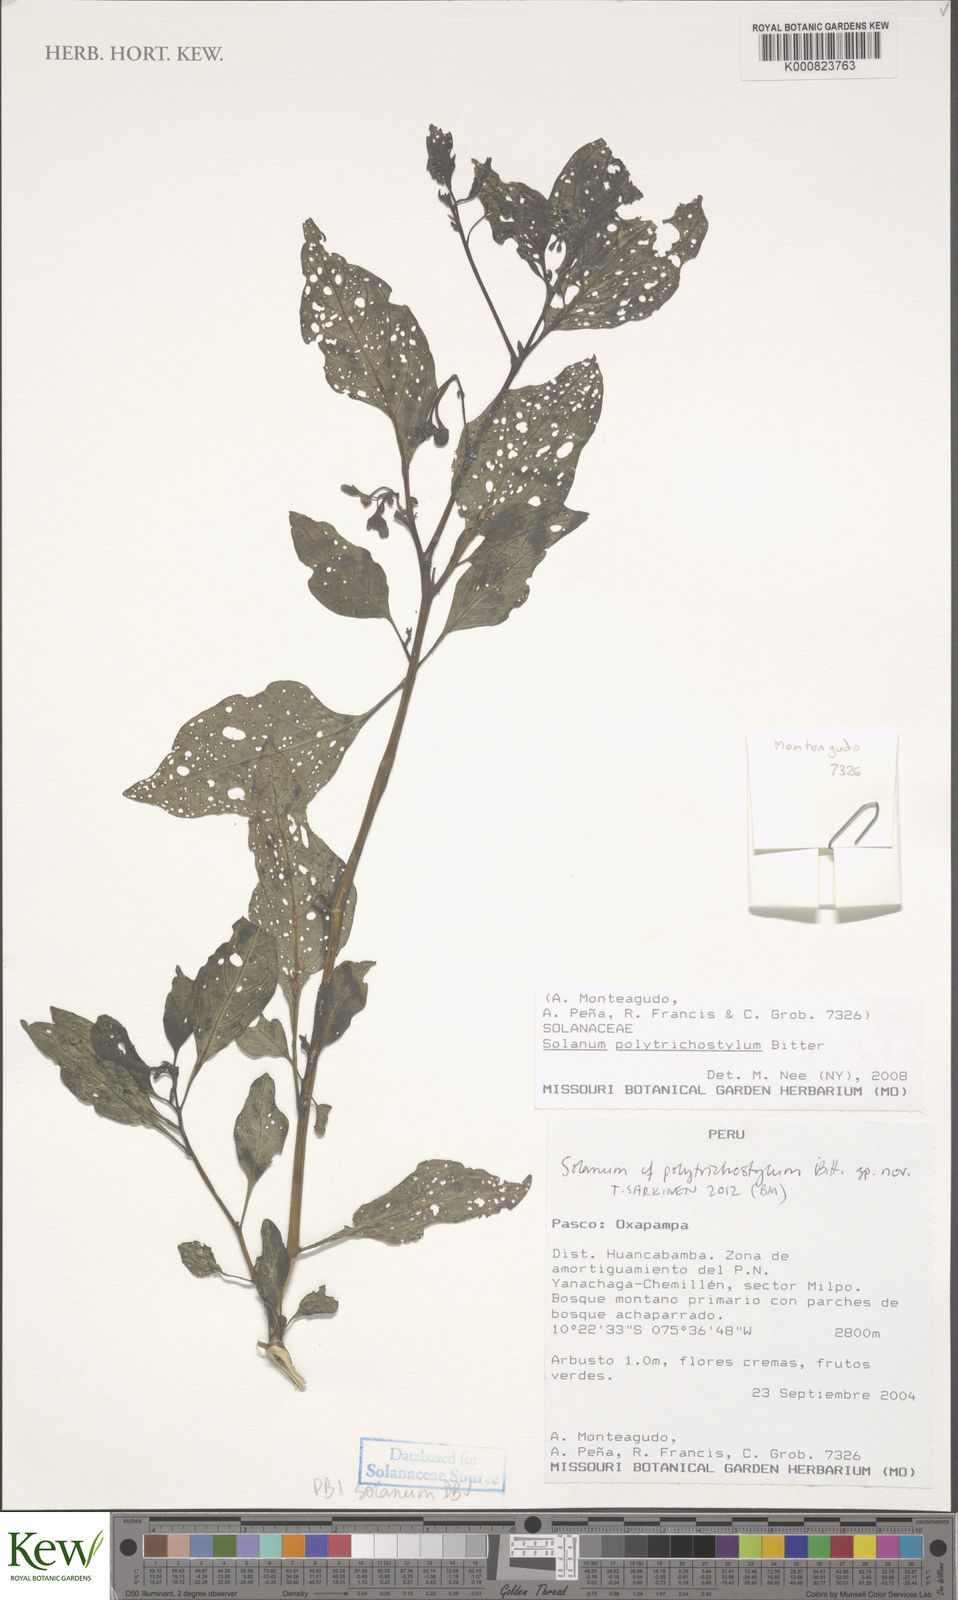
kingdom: Plantae
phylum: Tracheophyta
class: Magnoliopsida
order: Solanales
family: Solanaceae
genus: Solanum
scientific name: Solanum
